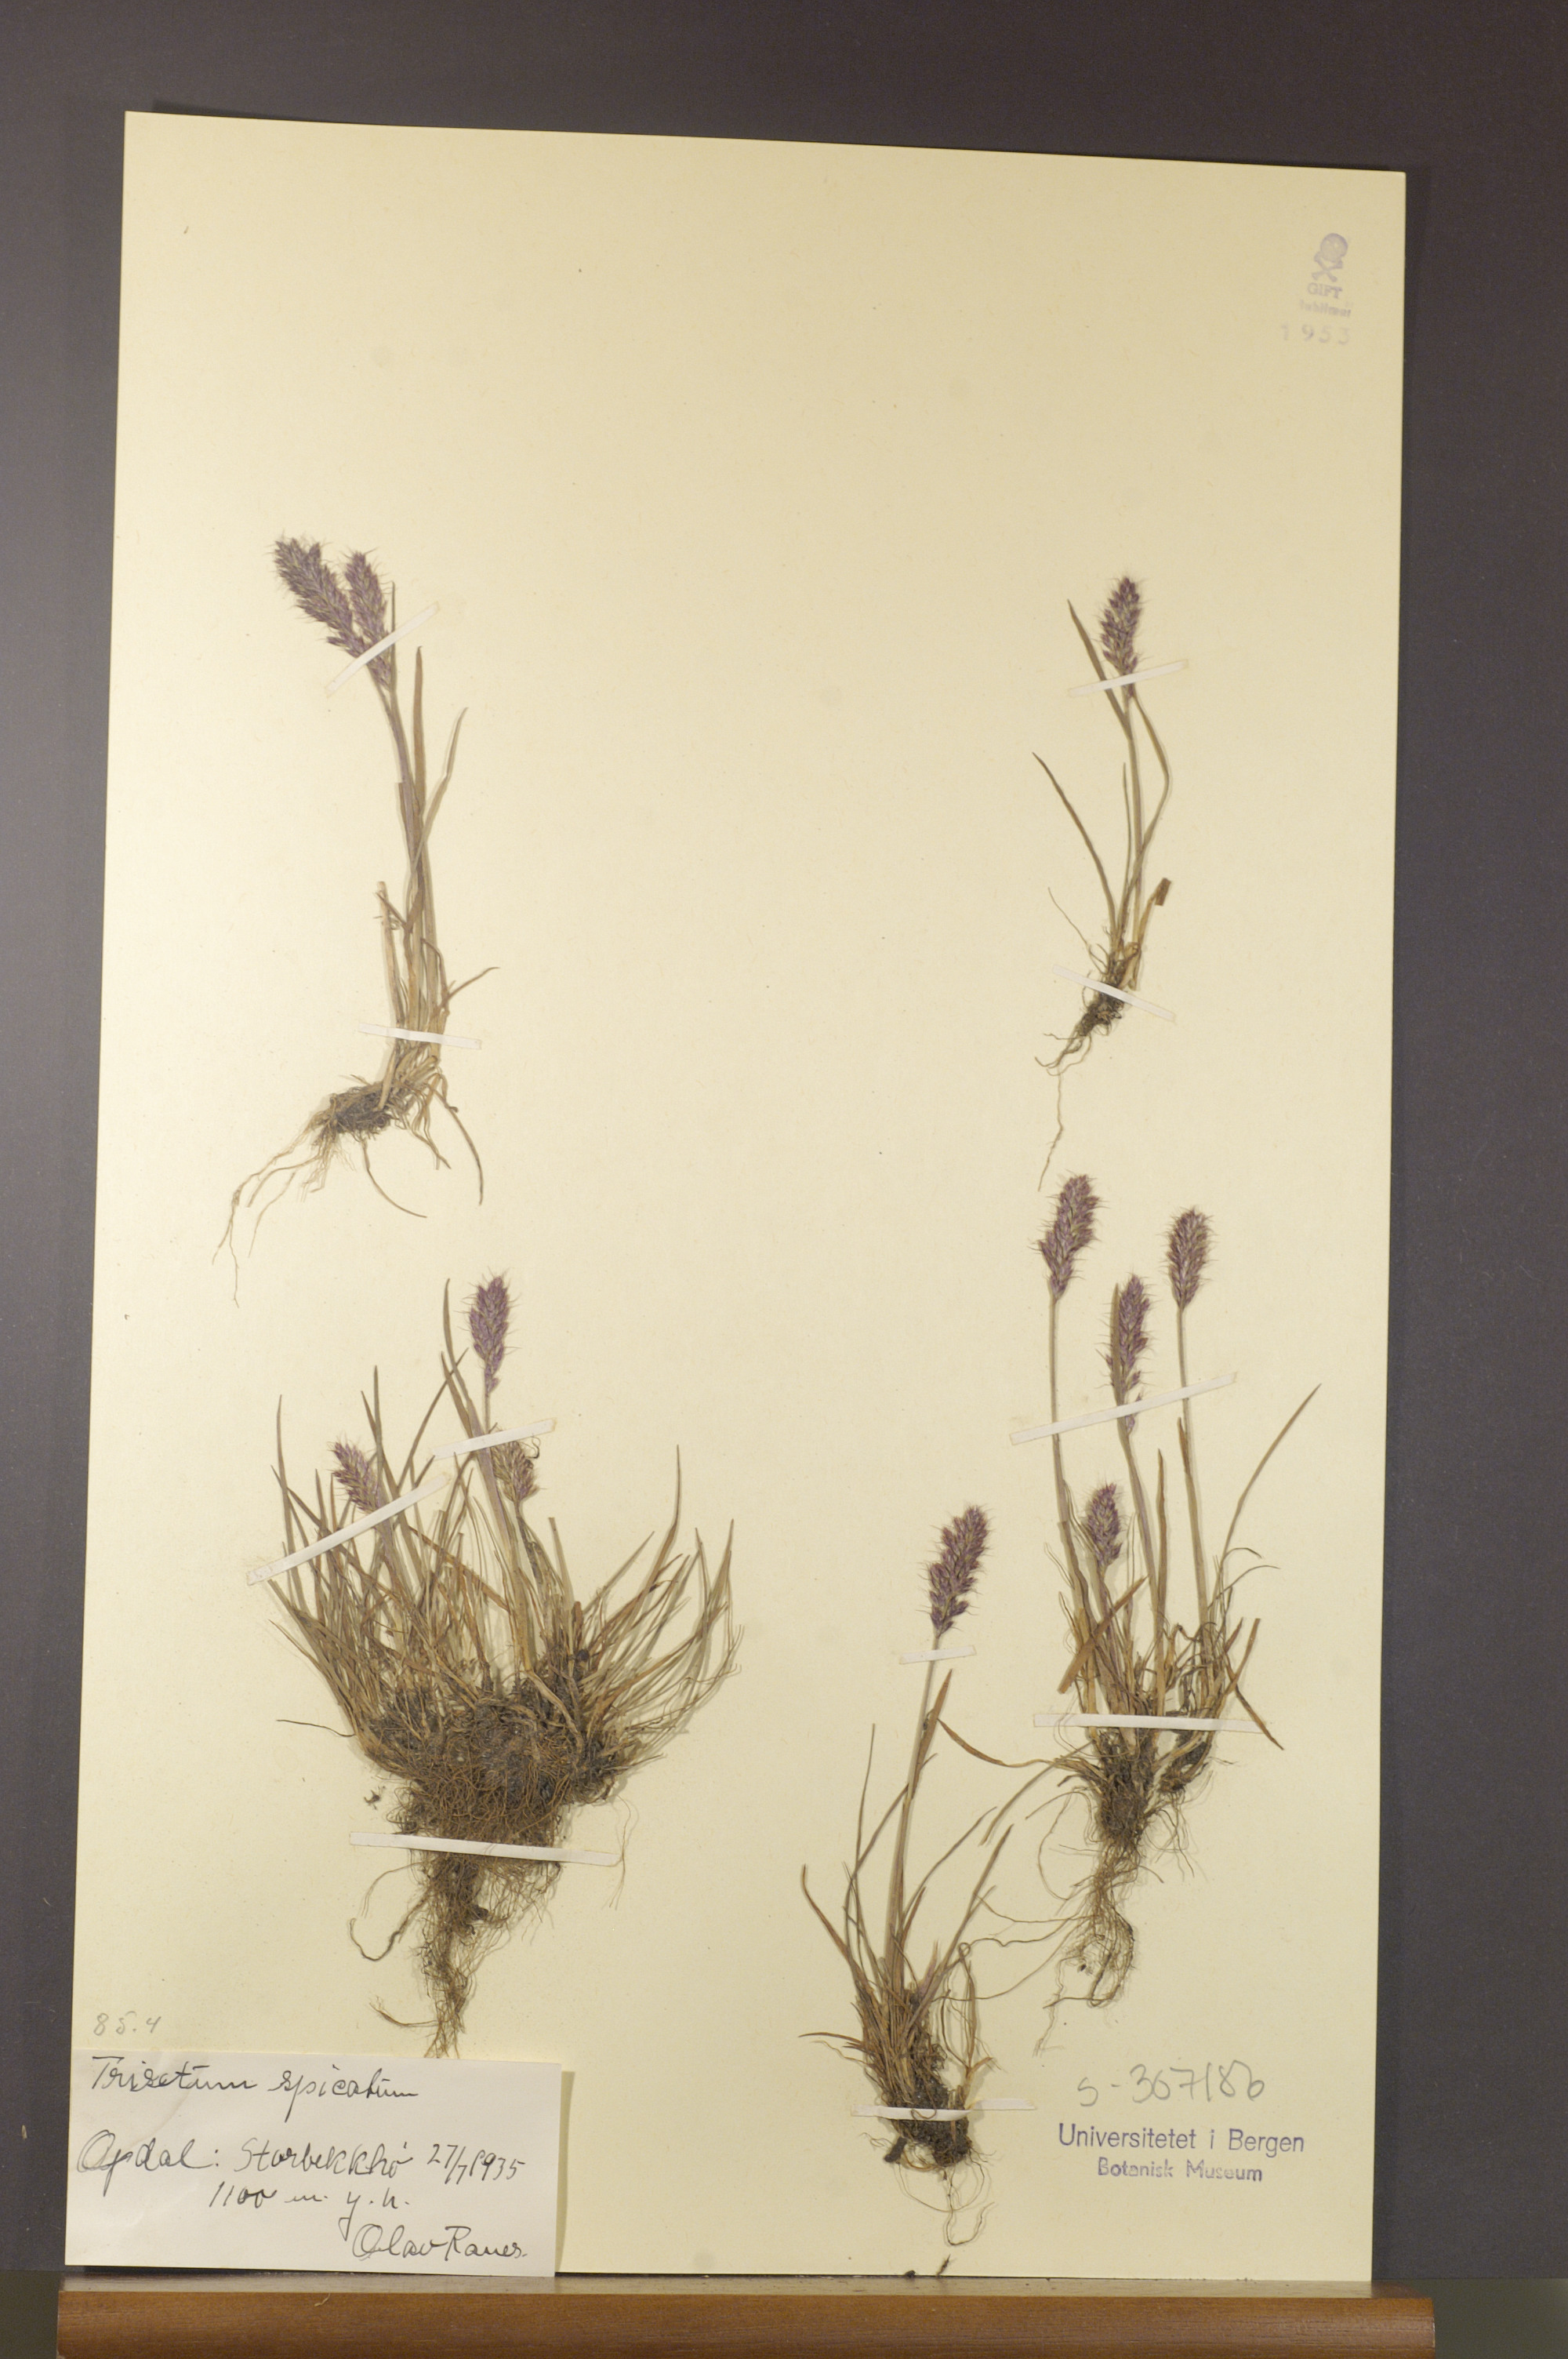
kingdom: Plantae
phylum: Tracheophyta
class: Liliopsida
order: Poales
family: Poaceae
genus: Koeleria
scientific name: Koeleria spicata
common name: Mountain trisetum
